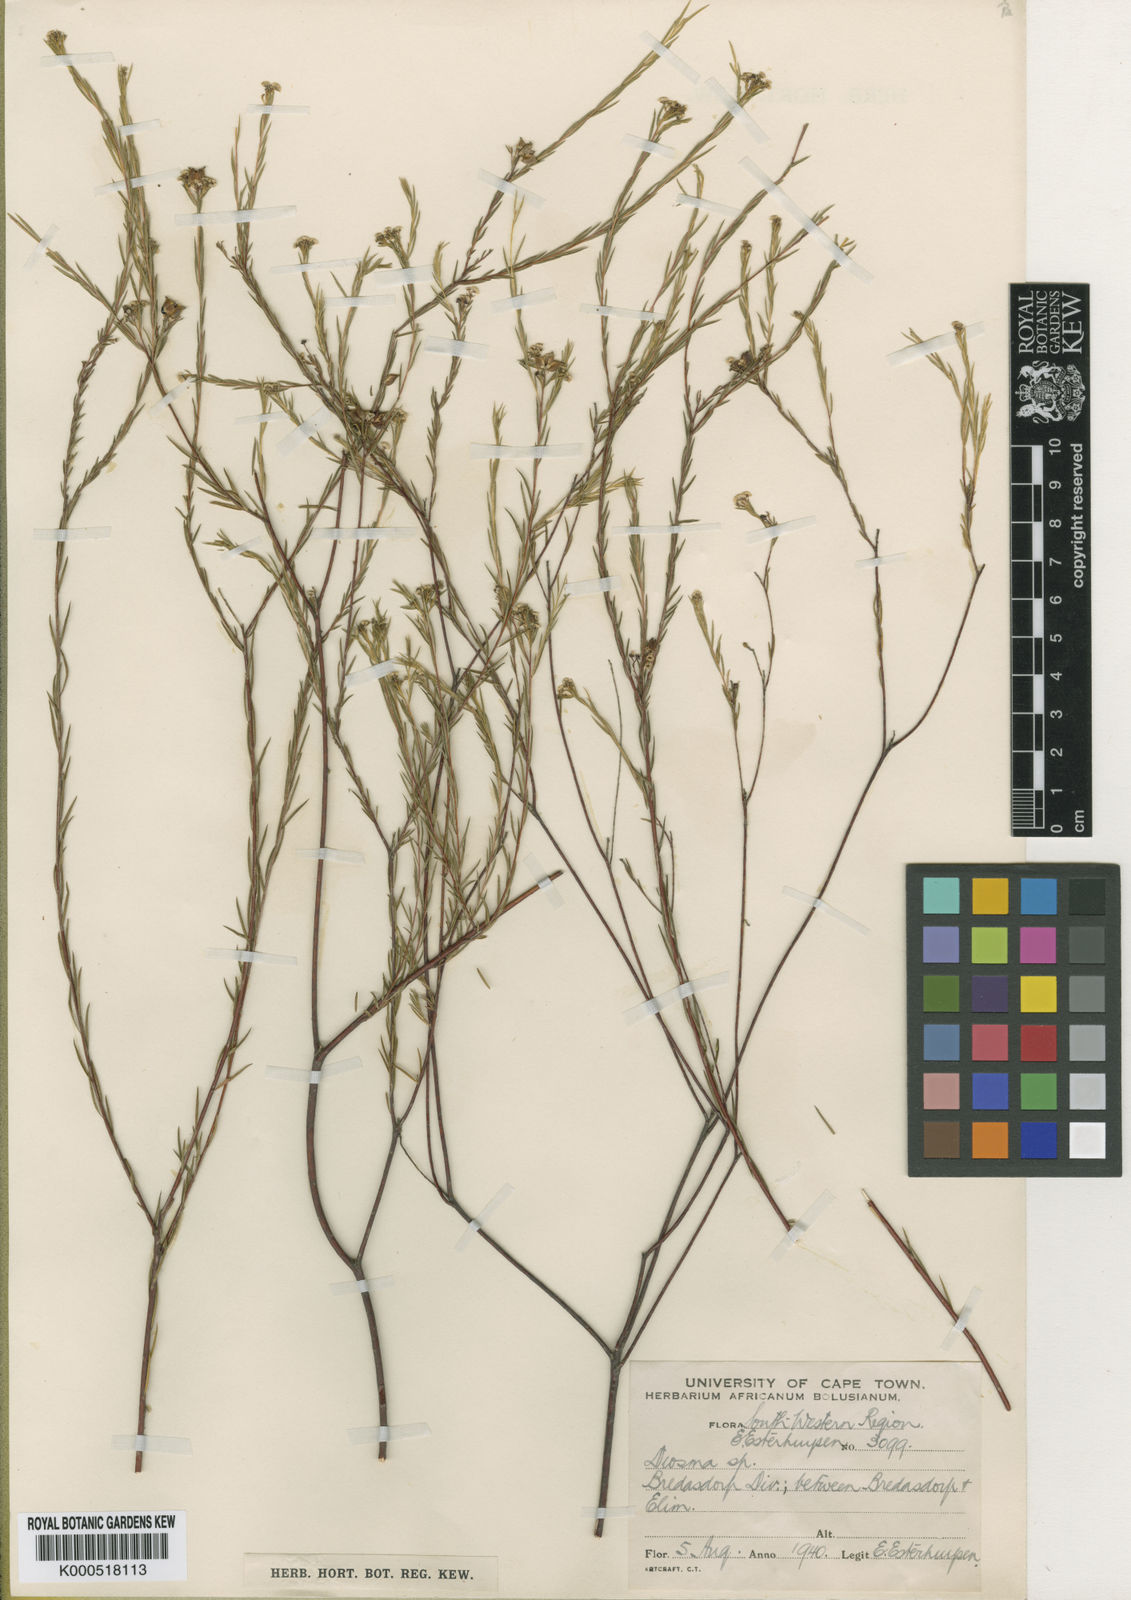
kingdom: Plantae
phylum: Tracheophyta
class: Magnoliopsida
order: Sapindales
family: Rutaceae
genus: Diosma
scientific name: Diosma fallax
